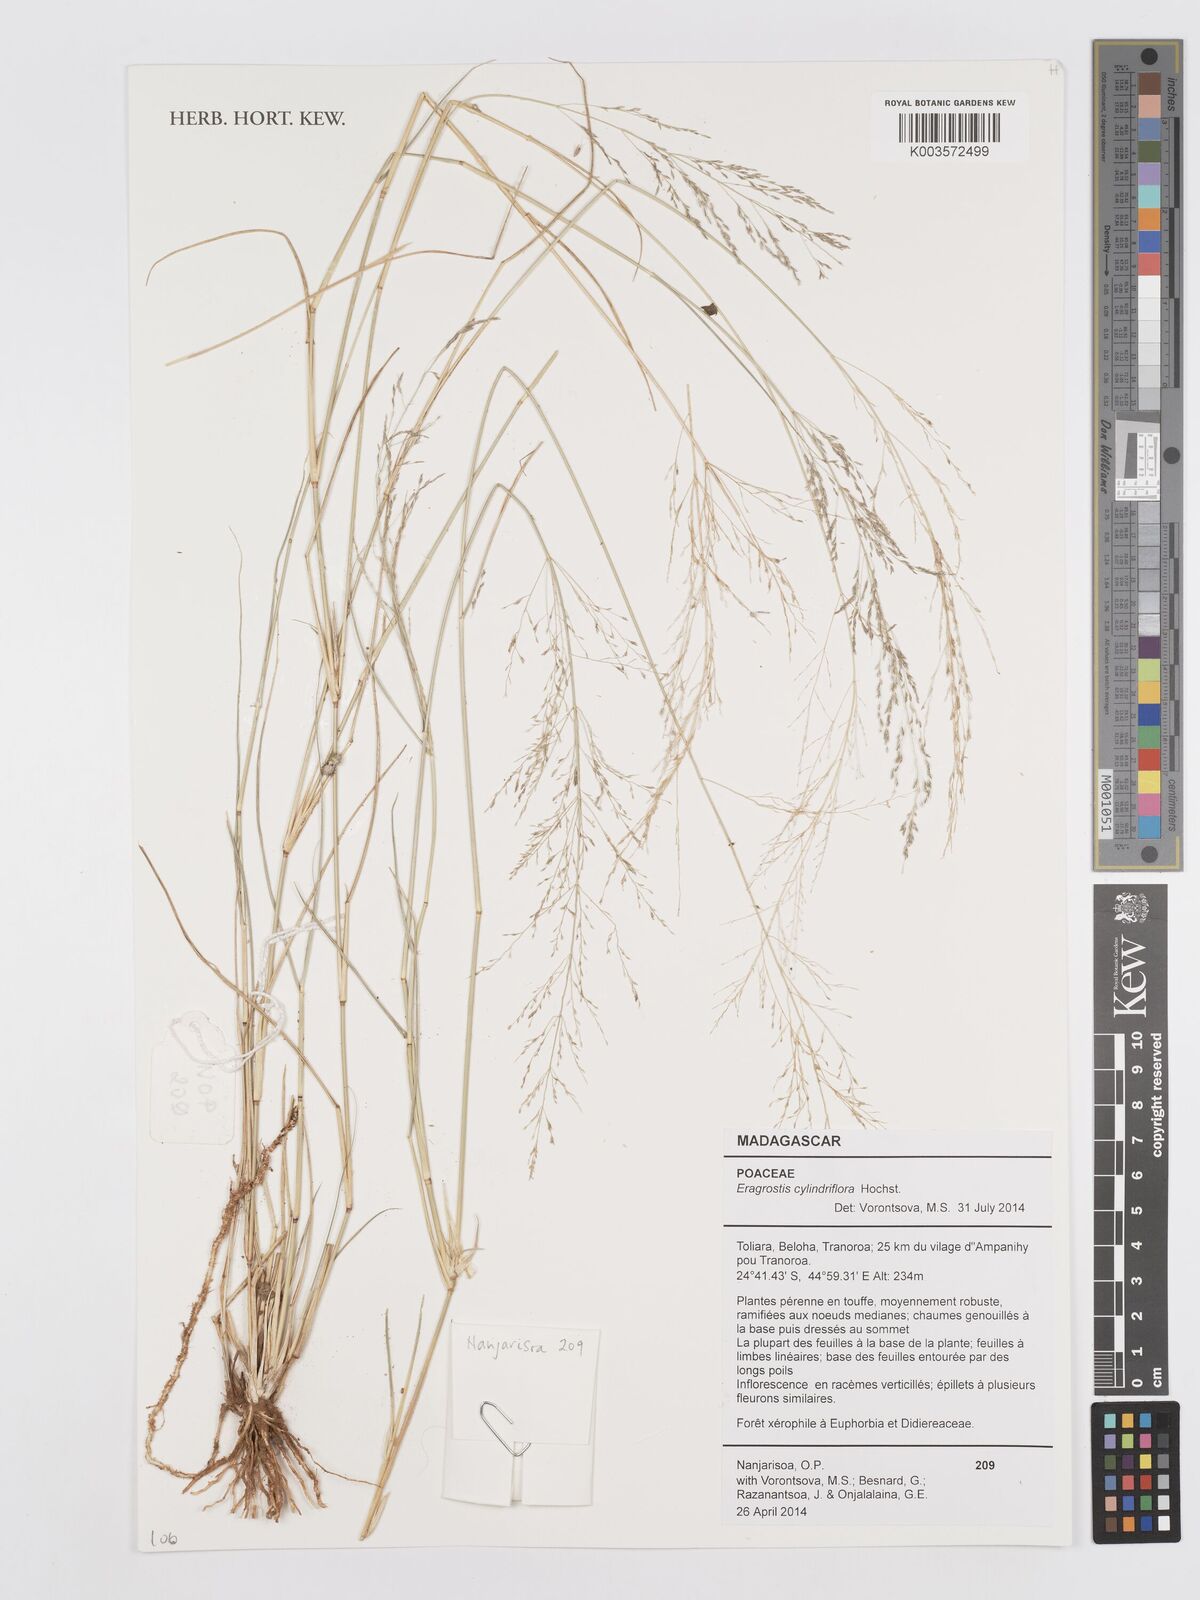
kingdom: Plantae
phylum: Tracheophyta
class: Liliopsida
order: Poales
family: Poaceae
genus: Eragrostis
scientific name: Eragrostis cylindriflora
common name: Cylinderflower lovegrass
